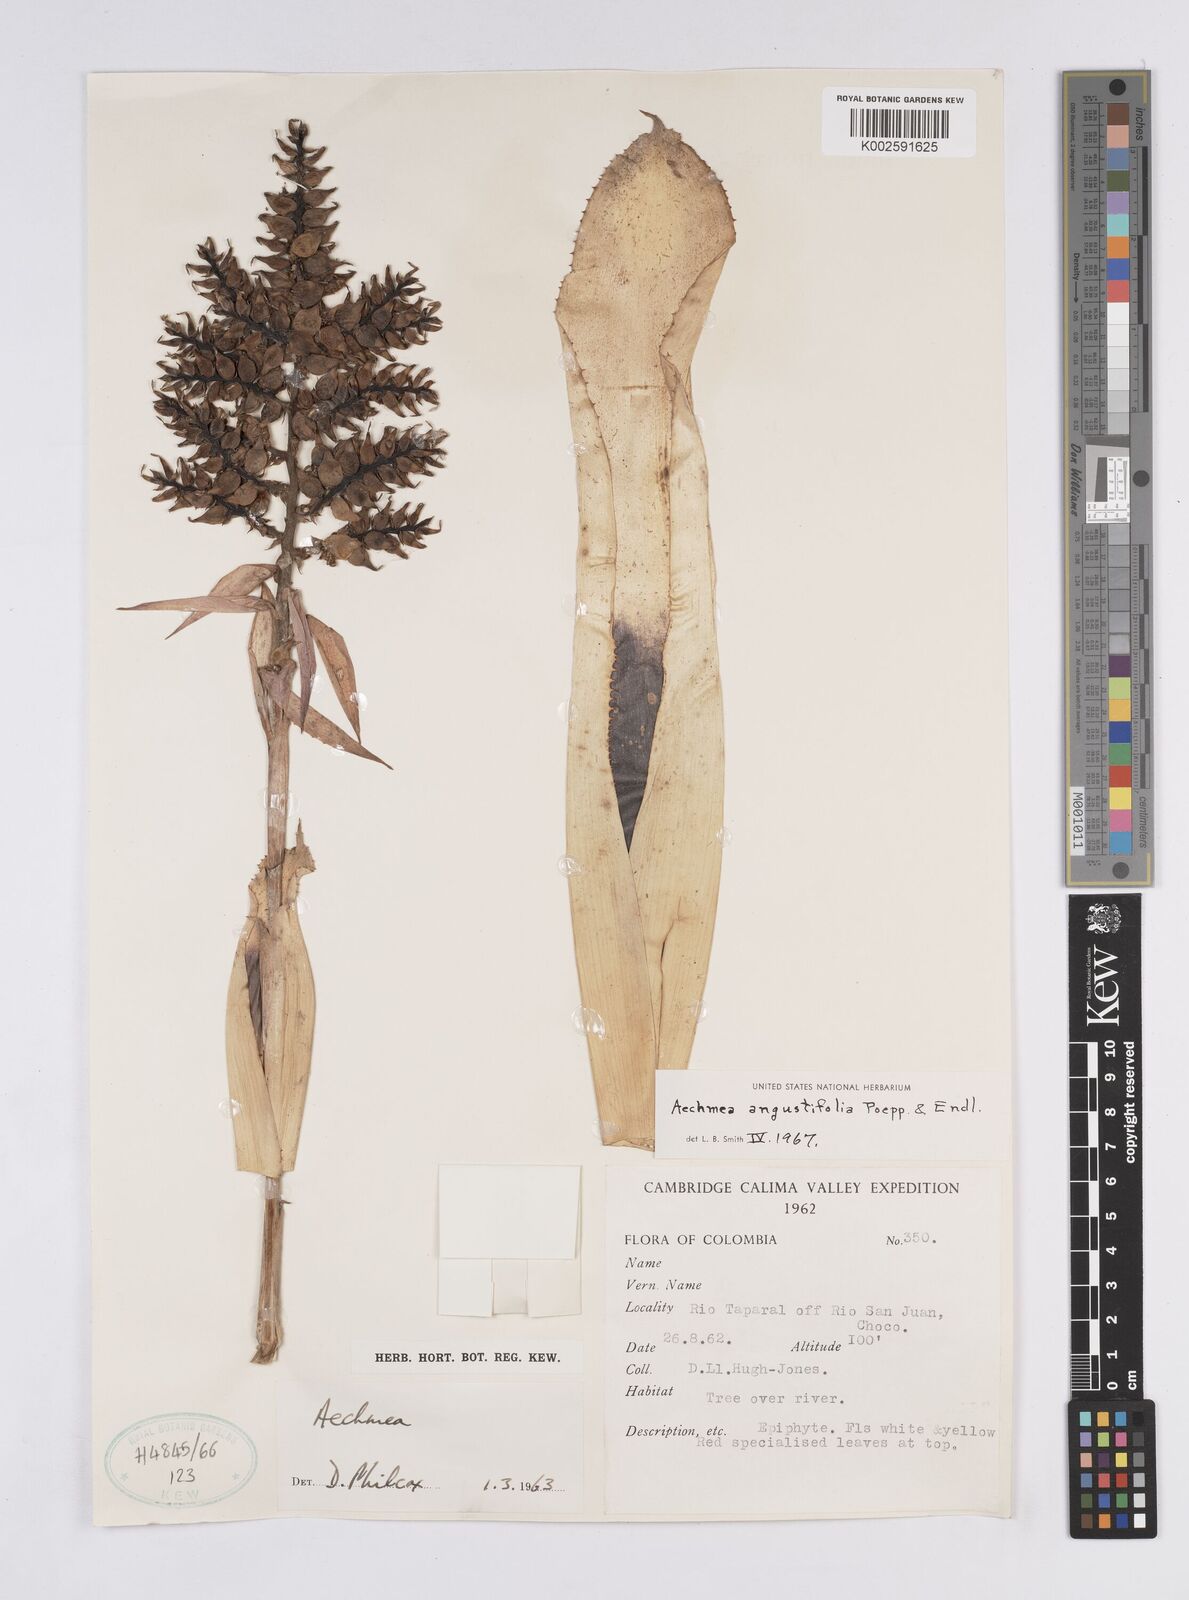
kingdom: Plantae
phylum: Tracheophyta
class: Liliopsida
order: Poales
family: Bromeliaceae
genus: Aechmea
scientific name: Aechmea angustifolia
